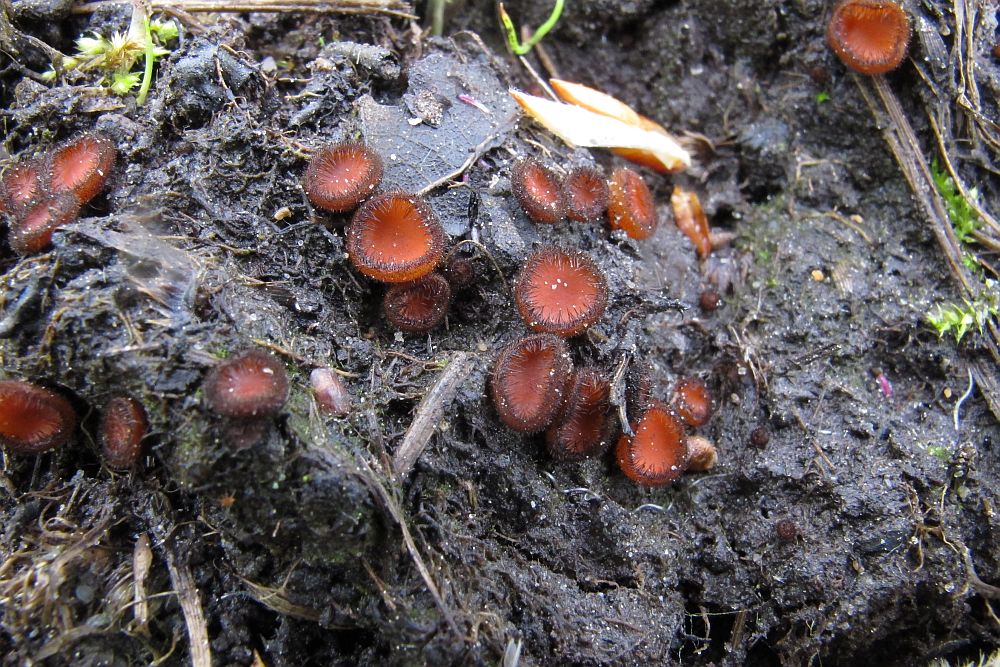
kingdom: Fungi
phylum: Ascomycota
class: Pezizomycetes
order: Pezizales
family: Pyronemataceae
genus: Scutellinia
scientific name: Scutellinia scutellata
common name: frynset skjoldbæger
